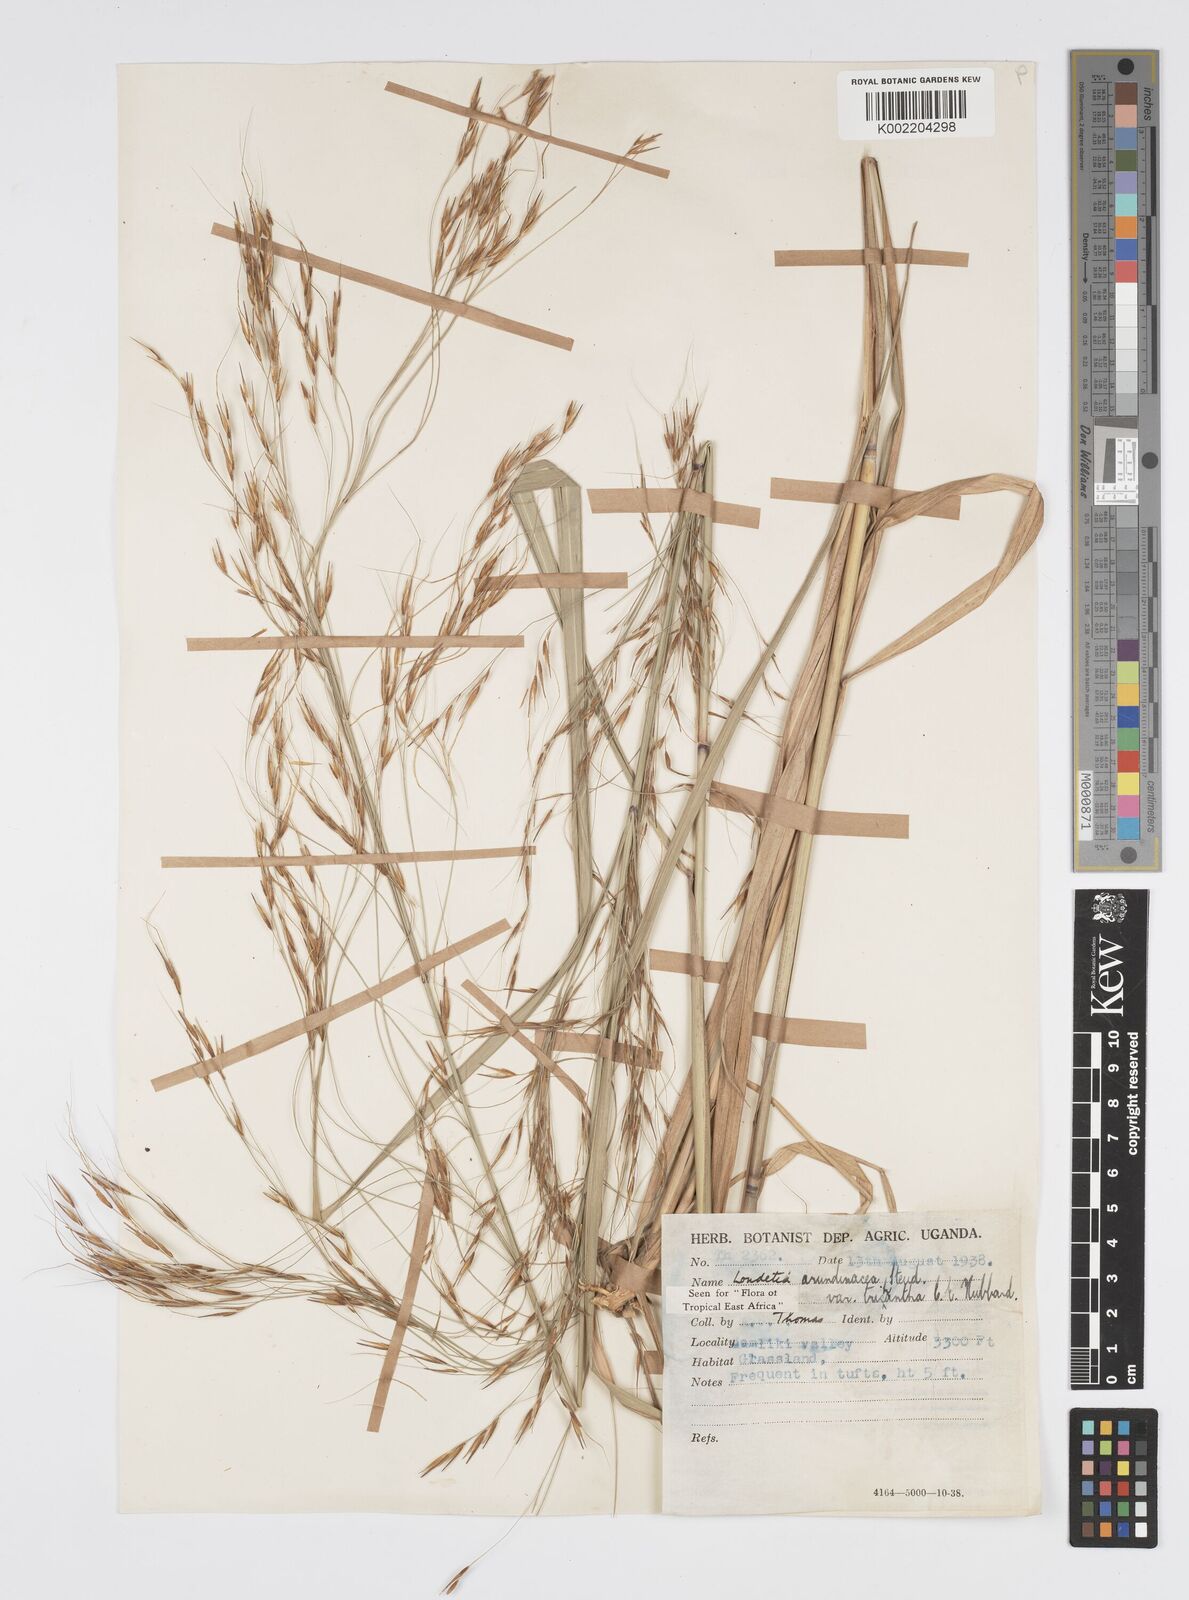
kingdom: Plantae
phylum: Tracheophyta
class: Liliopsida
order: Poales
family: Poaceae
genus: Loudetia
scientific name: Loudetia arundinacea
